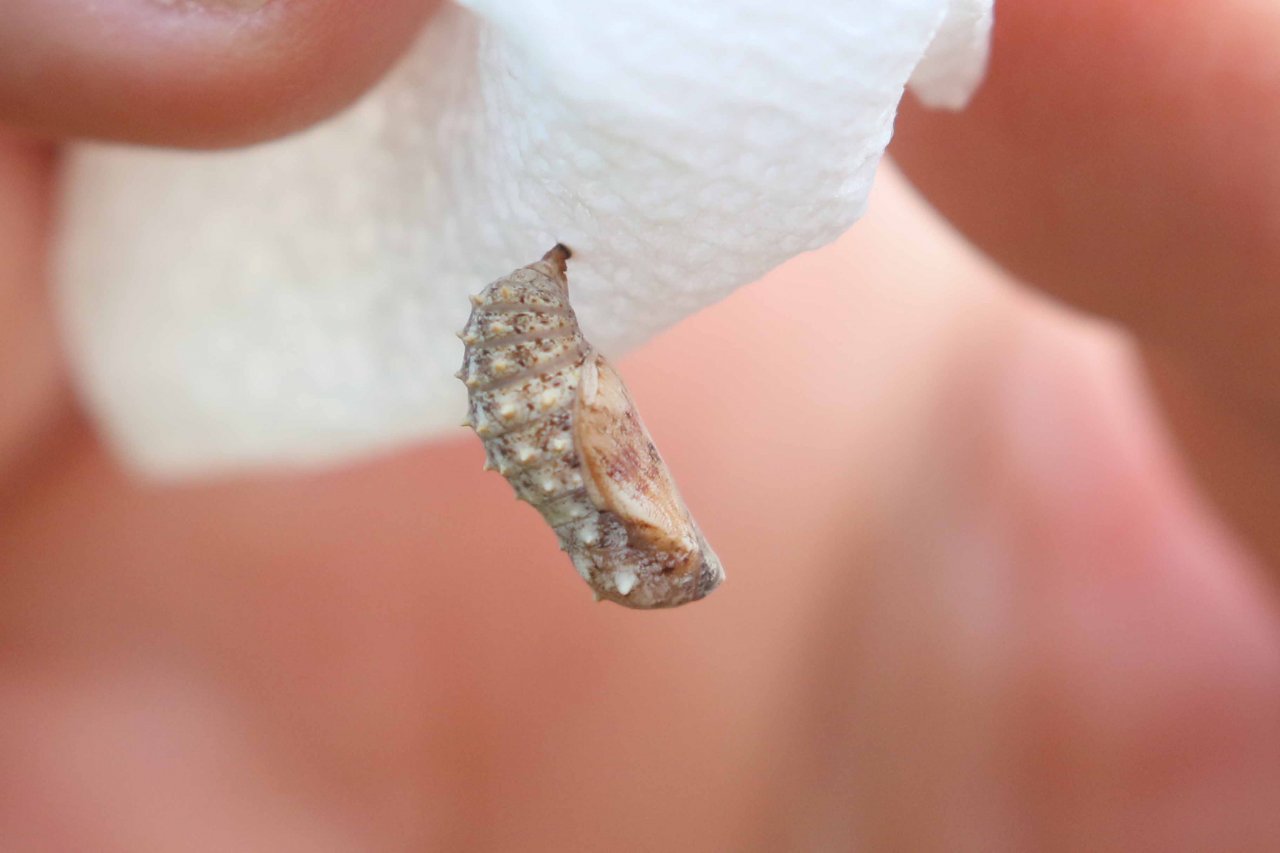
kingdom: Animalia
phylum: Arthropoda
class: Insecta
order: Lepidoptera
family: Nymphalidae
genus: Chlosyne
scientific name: Chlosyne nycteis
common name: Silvery Checkerspot
